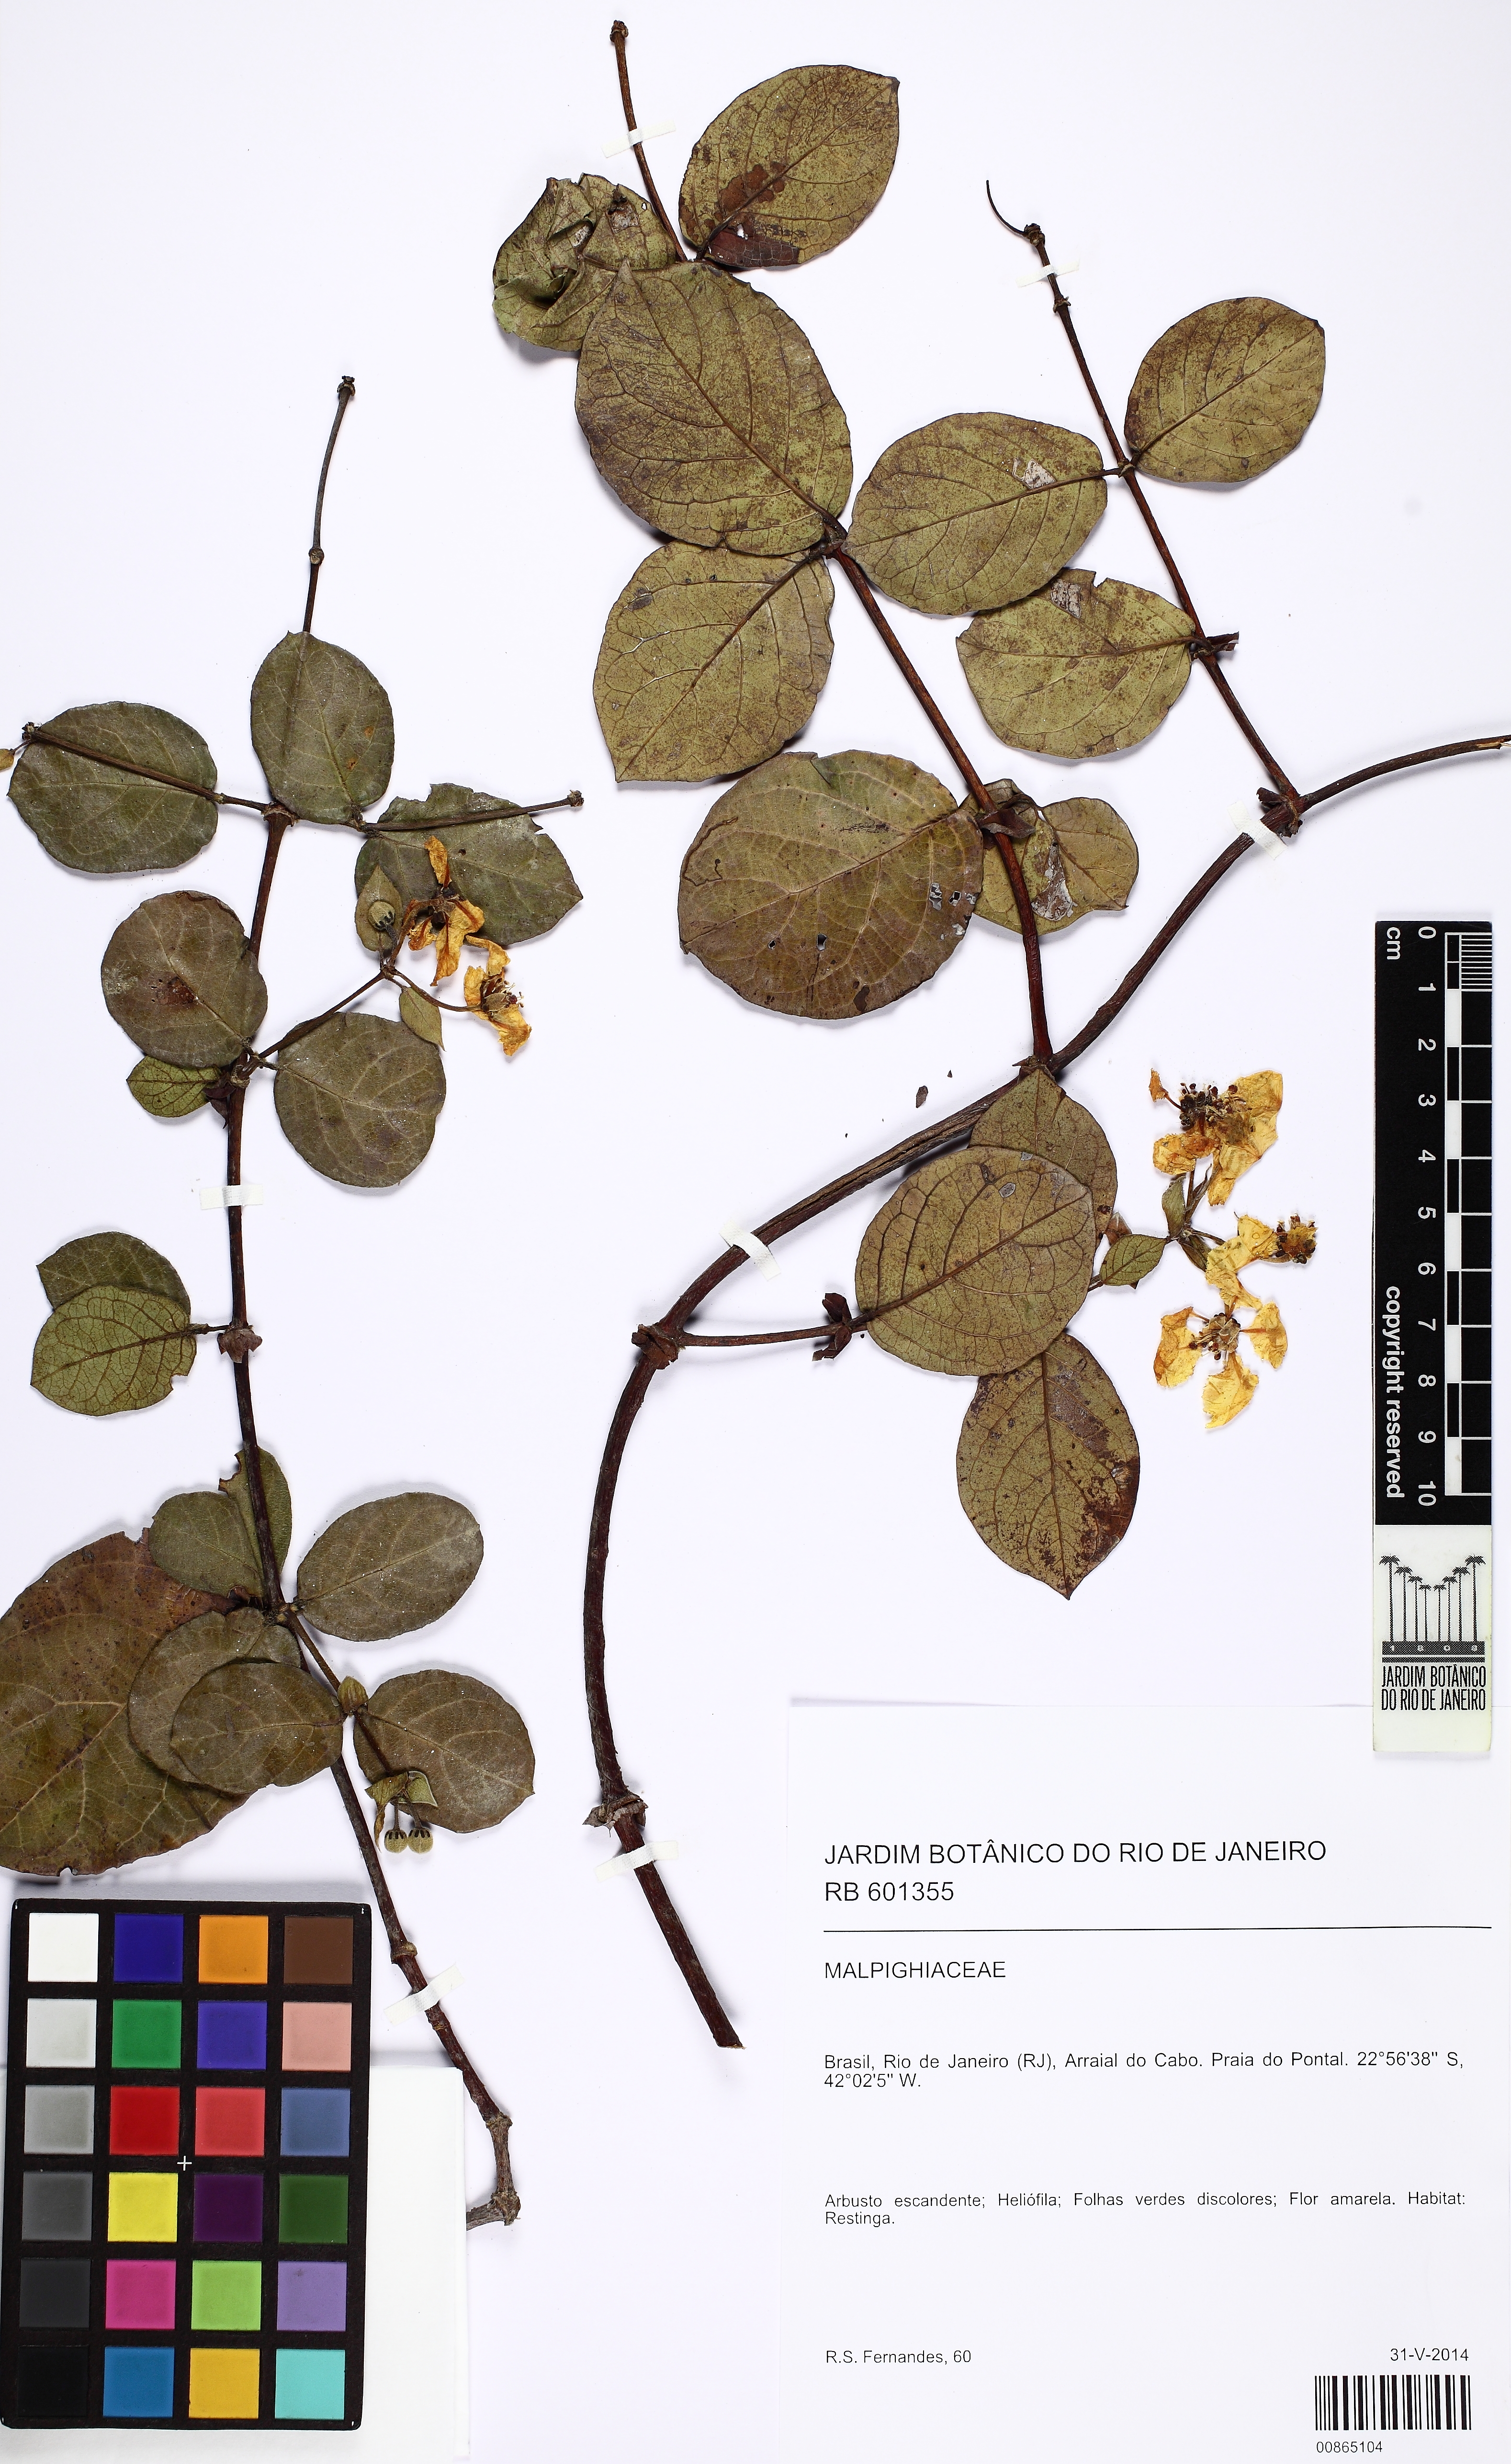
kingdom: Plantae
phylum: Tracheophyta
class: Magnoliopsida
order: Malpighiales
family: Malpighiaceae
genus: Peixotoa
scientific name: Peixotoa
